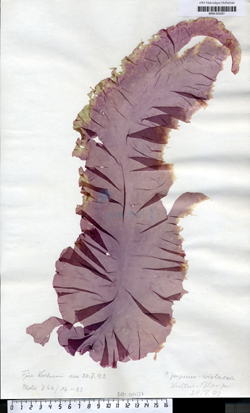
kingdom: Plantae
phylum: Rhodophyta
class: Bangiophyceae
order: Bangiales
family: Bangiaceae
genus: Porphyra
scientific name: Porphyra purpurea
